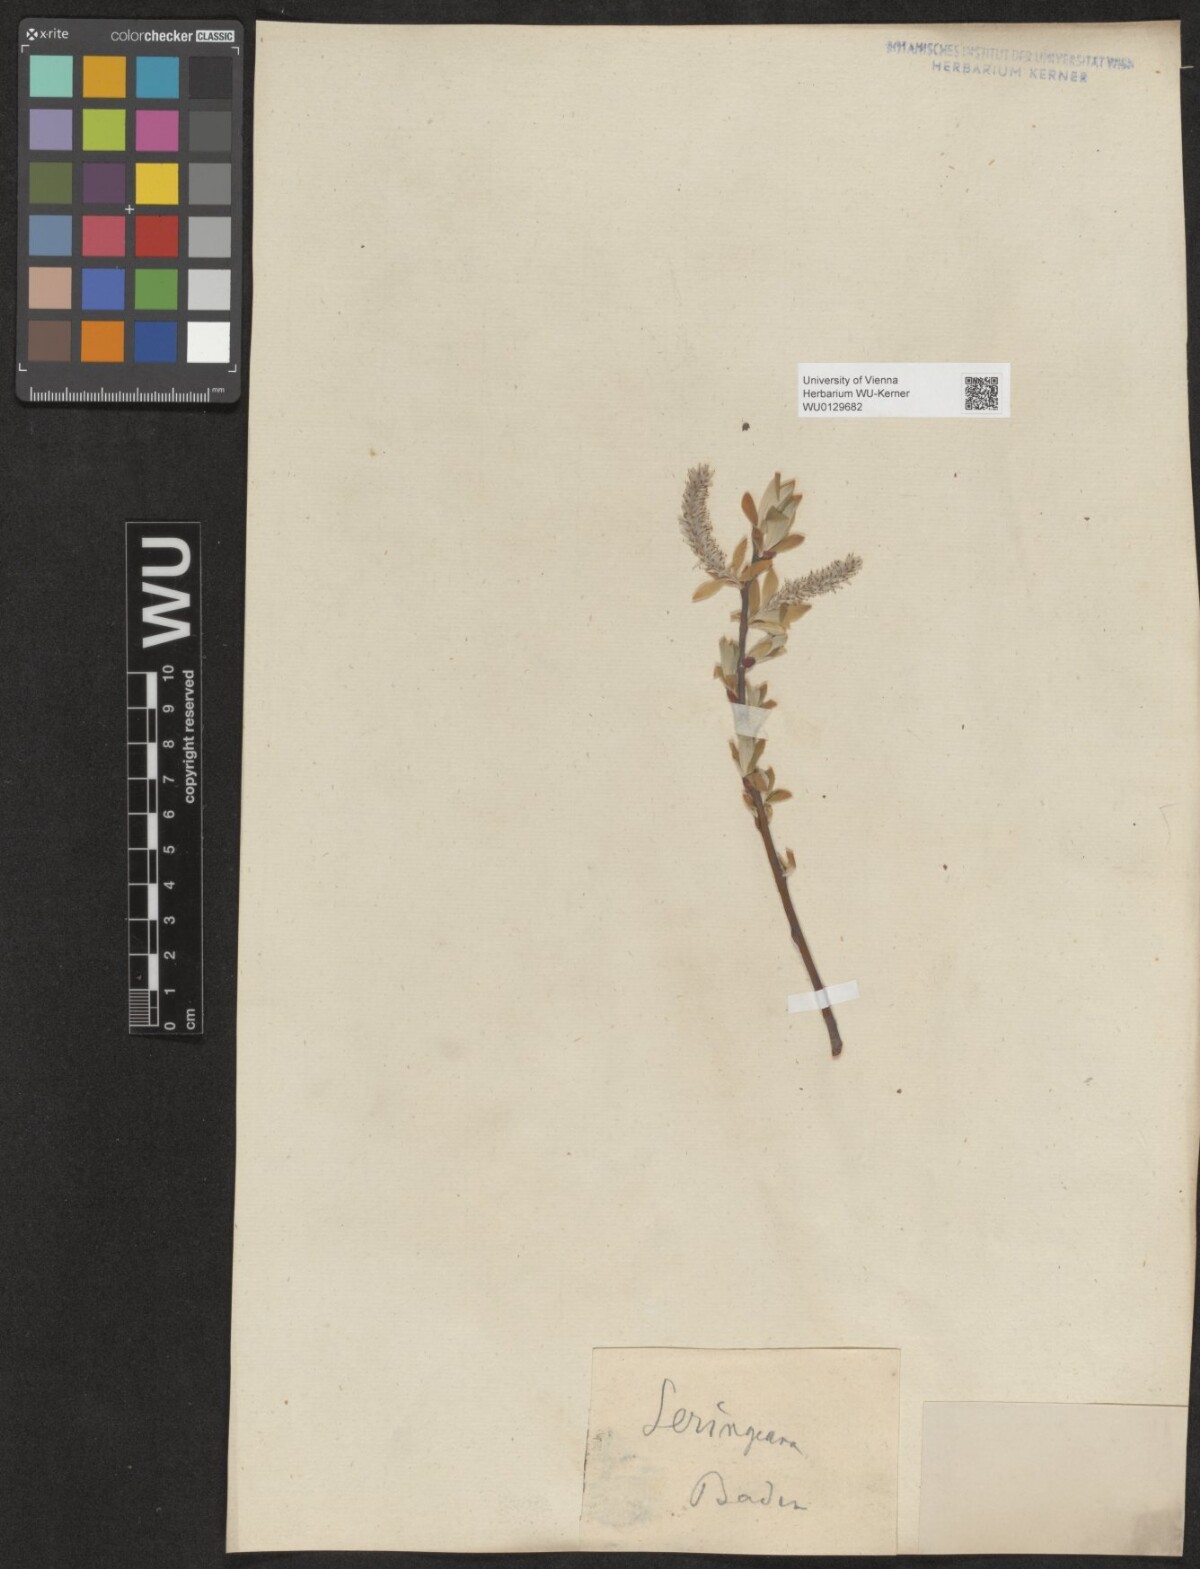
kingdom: Plantae
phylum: Tracheophyta
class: Magnoliopsida
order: Malpighiales
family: Salicaceae
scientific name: Salicaceae
